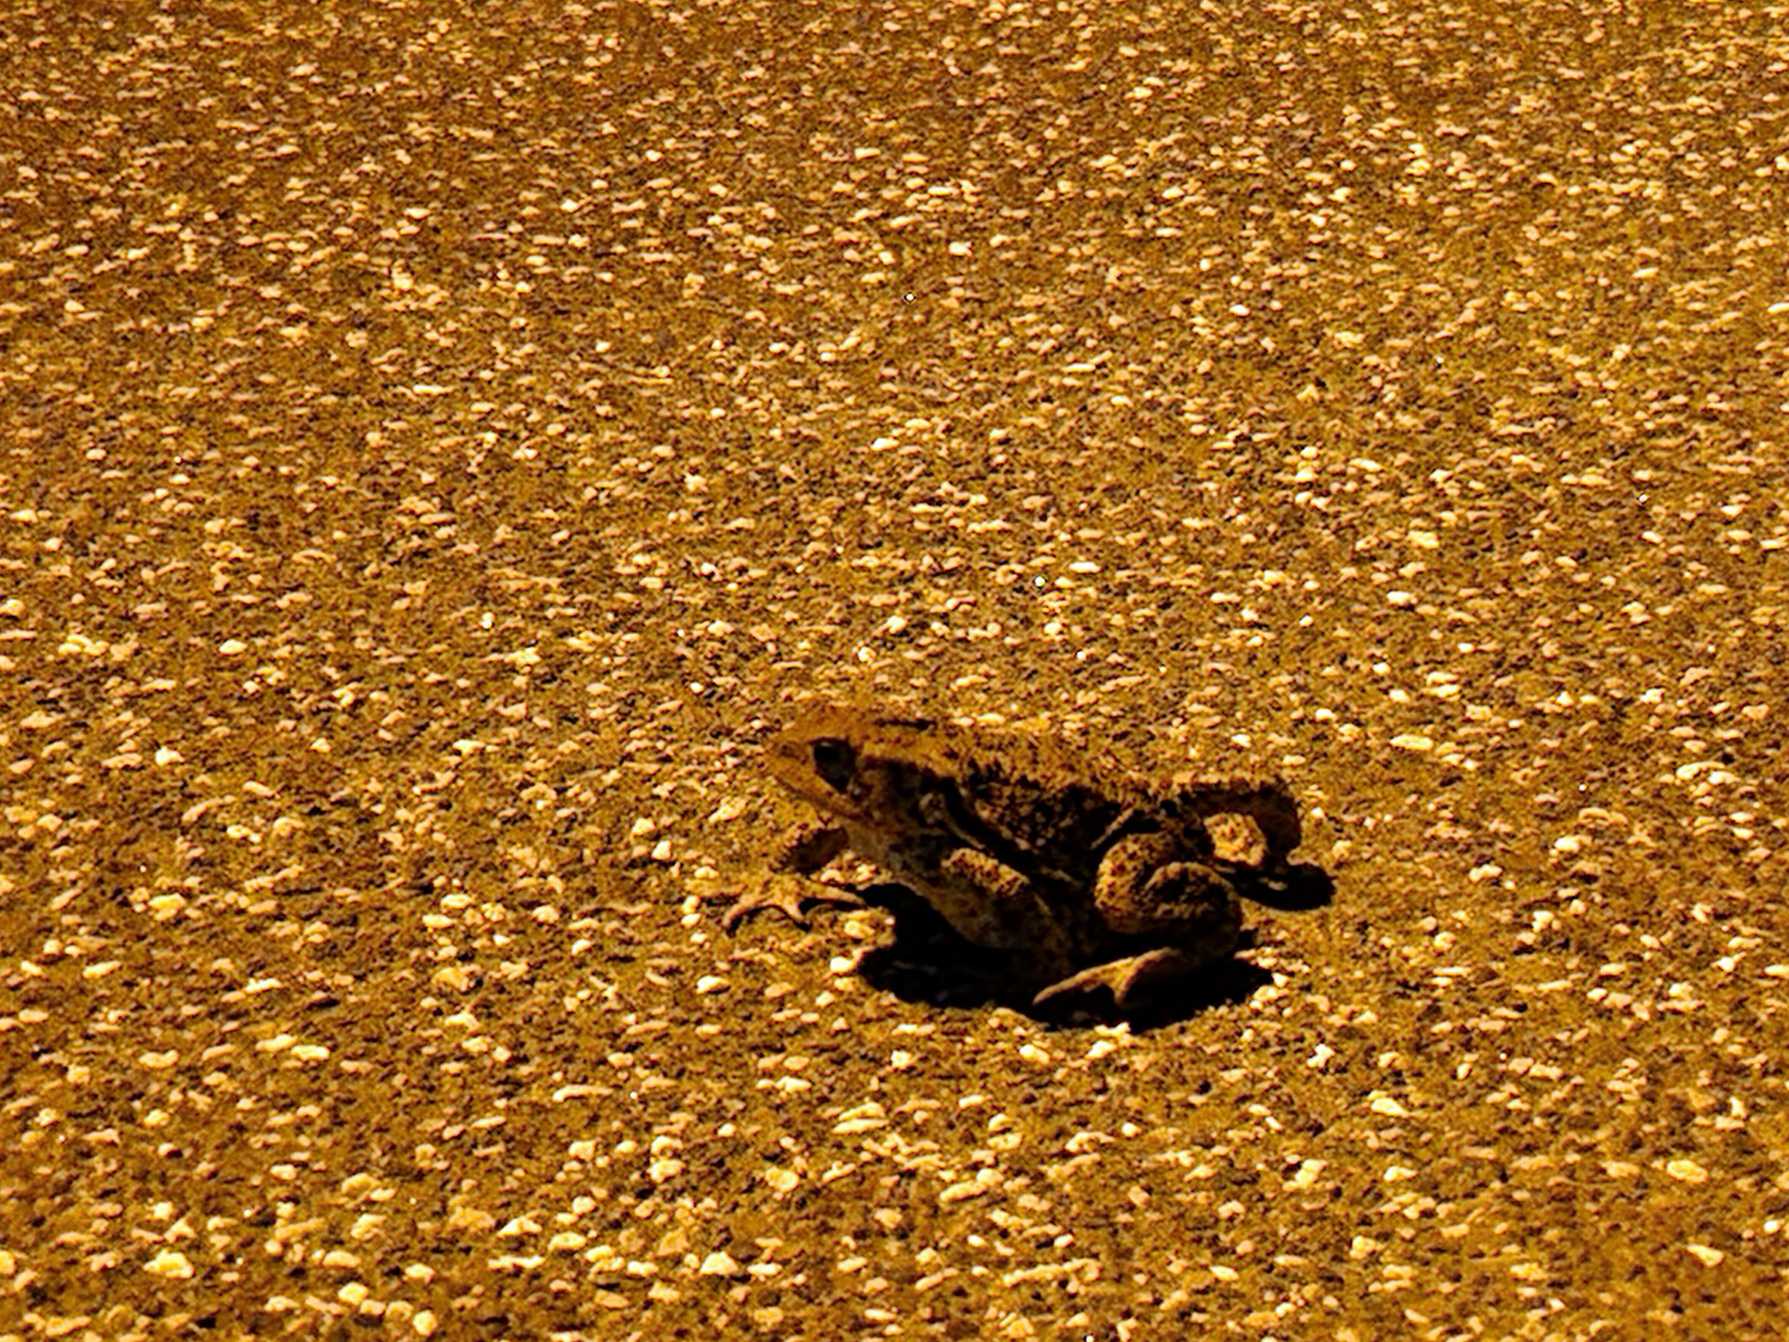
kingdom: Animalia
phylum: Chordata
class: Amphibia
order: Anura
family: Bufonidae
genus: Bufo
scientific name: Bufo bufo
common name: Skrubtudse
